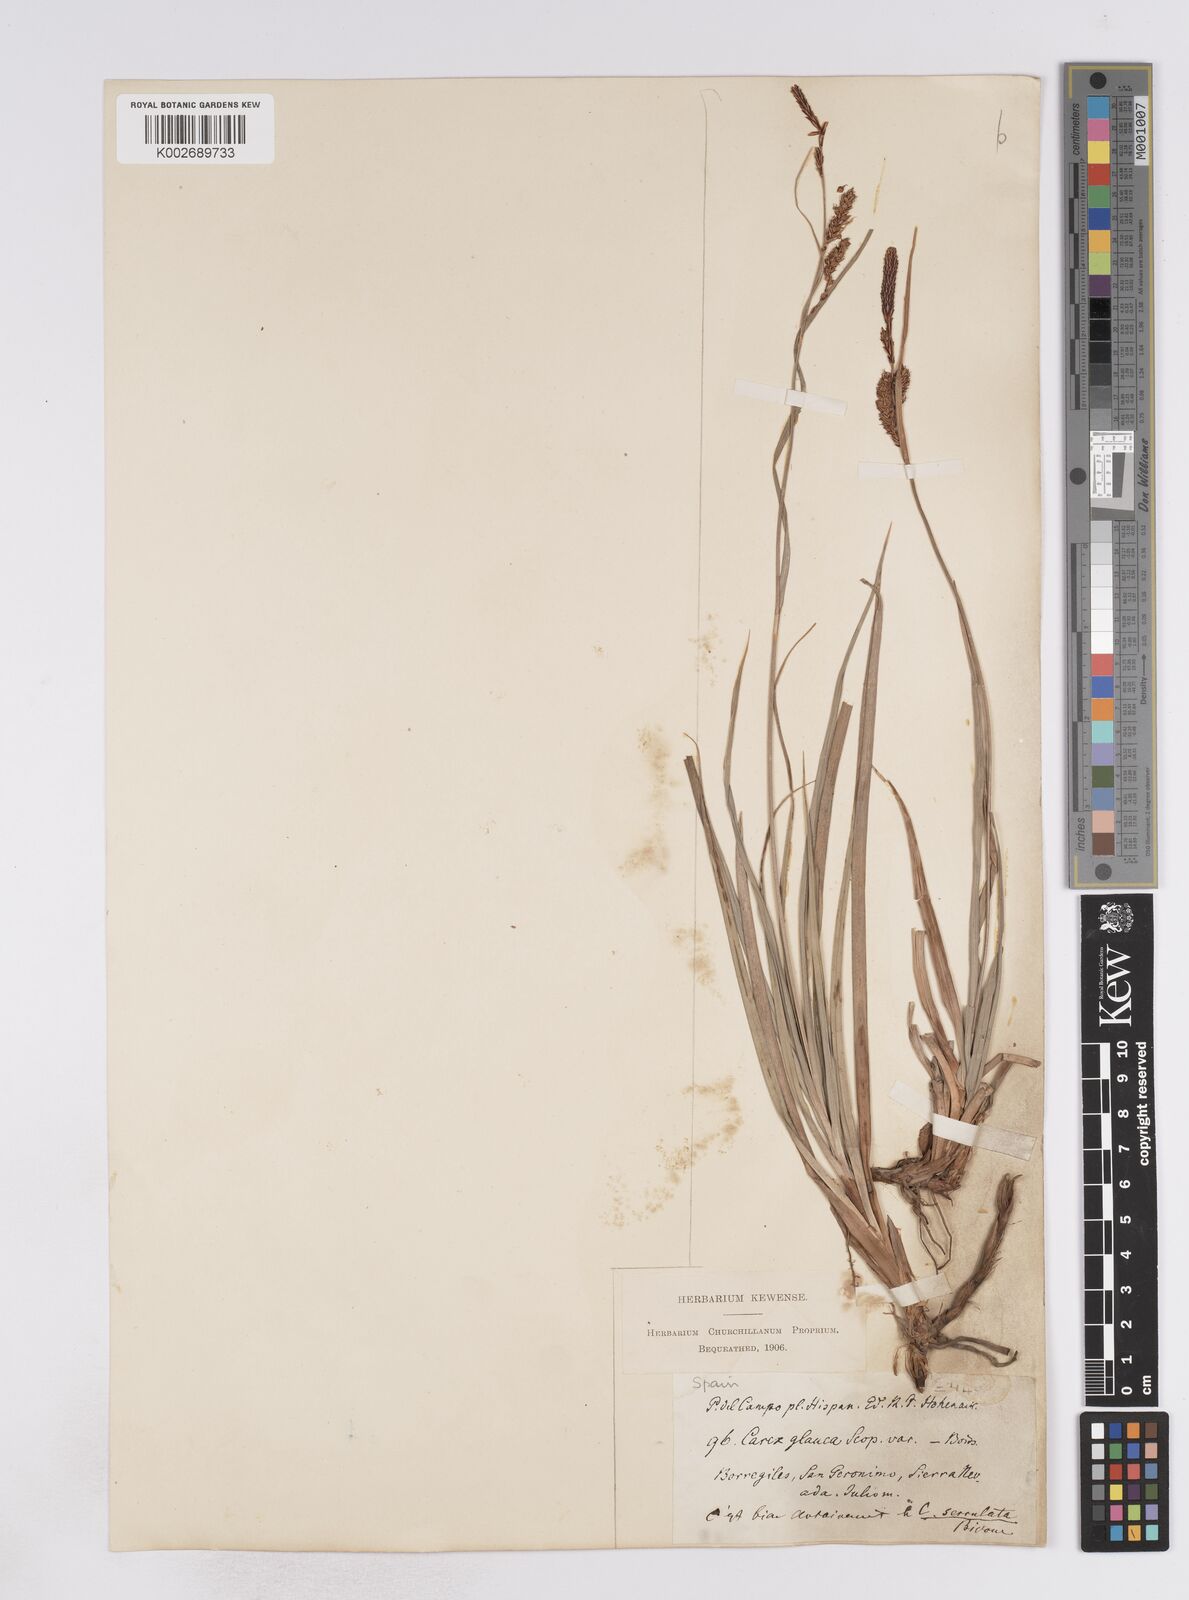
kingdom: Plantae
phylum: Tracheophyta
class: Liliopsida
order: Poales
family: Cyperaceae
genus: Carex
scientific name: Carex flacca
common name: Glaucous sedge
